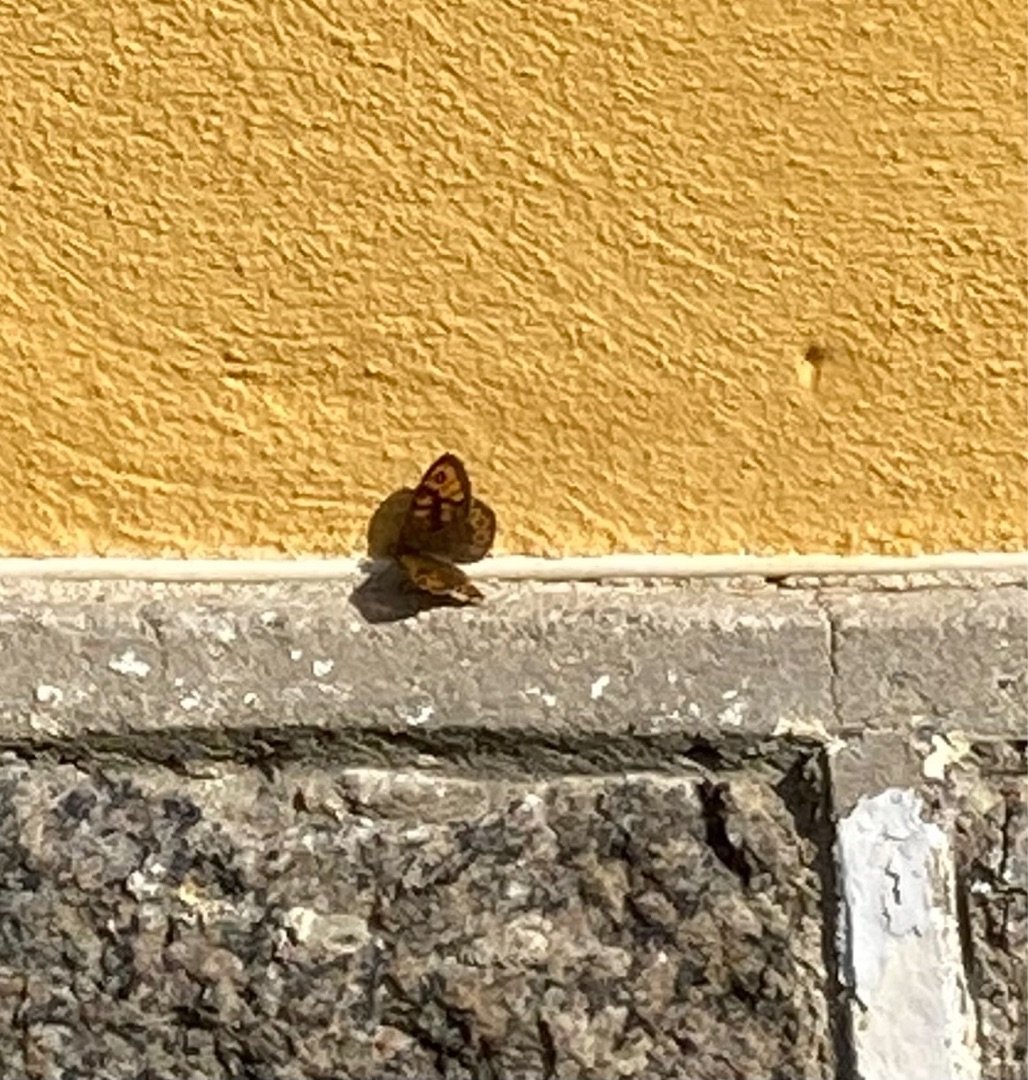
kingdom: Animalia
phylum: Arthropoda
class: Insecta
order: Lepidoptera
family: Nymphalidae
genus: Pararge
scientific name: Pararge Lasiommata megera
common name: Vejrandøje
